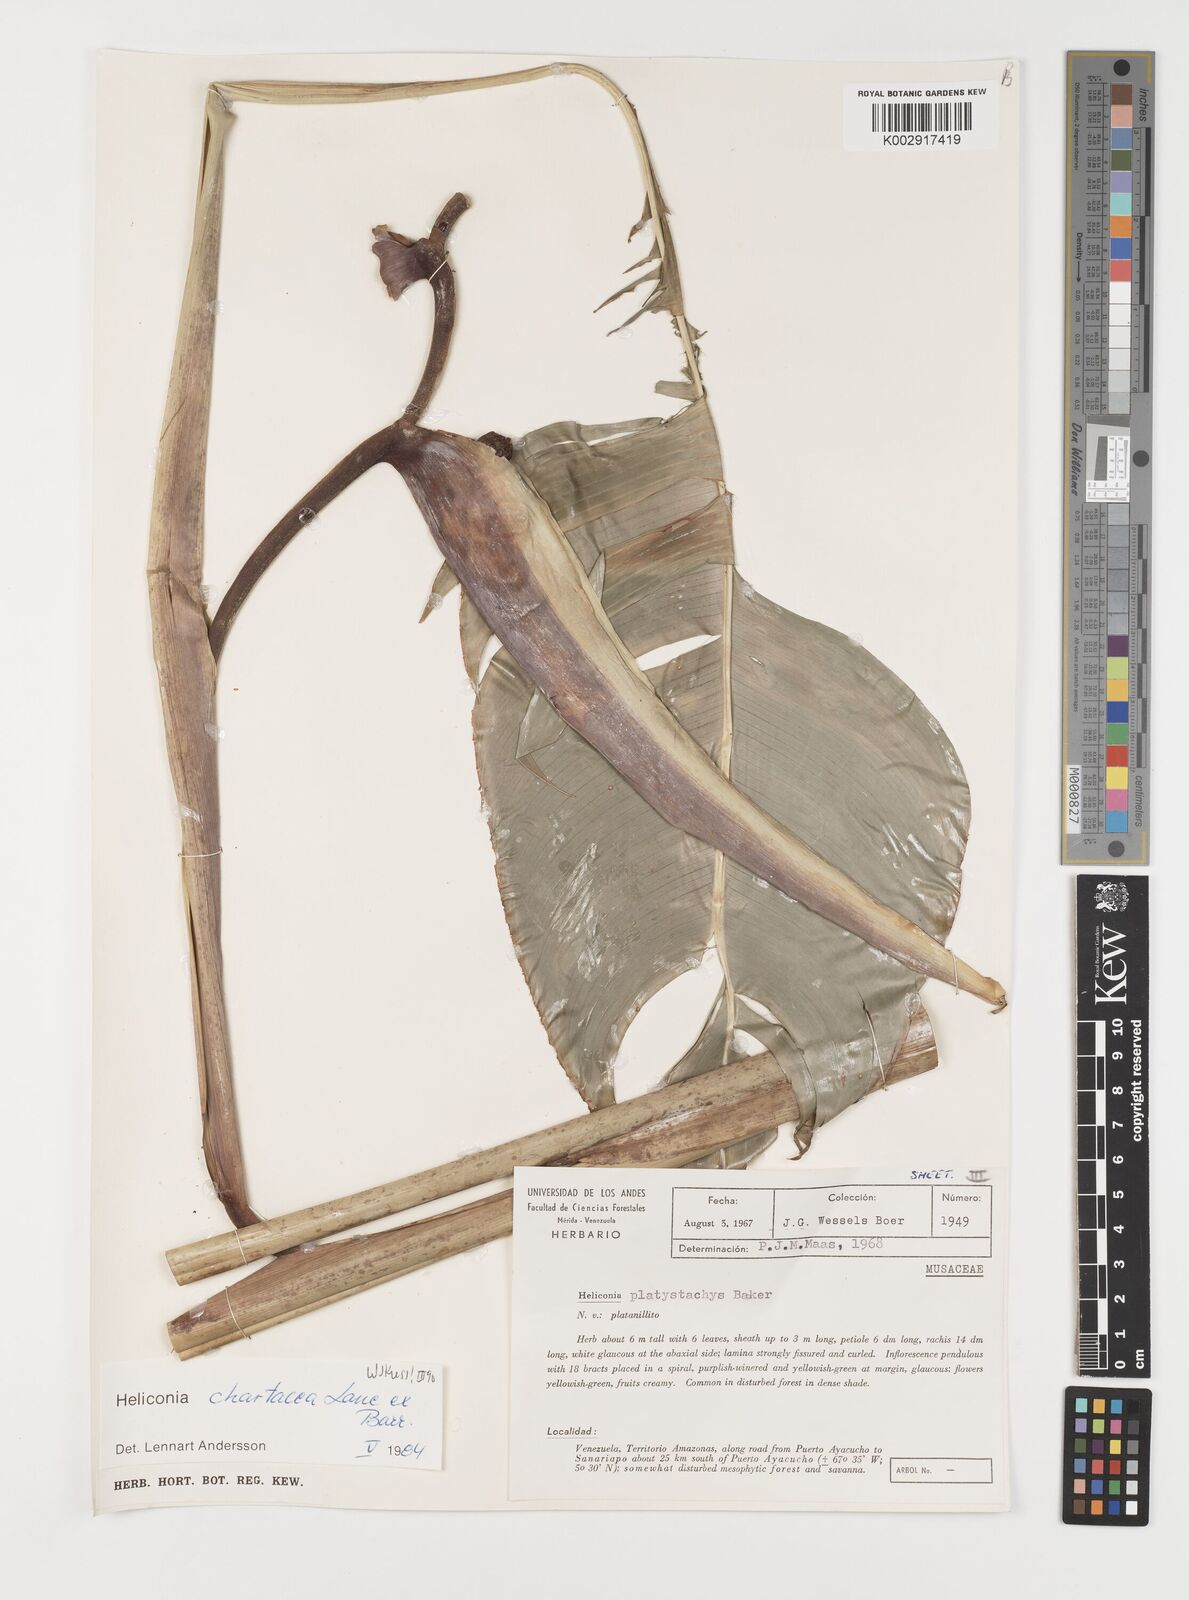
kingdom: Plantae
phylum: Tracheophyta
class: Liliopsida
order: Zingiberales
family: Heliconiaceae
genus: Heliconia
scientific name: Heliconia chartacea
